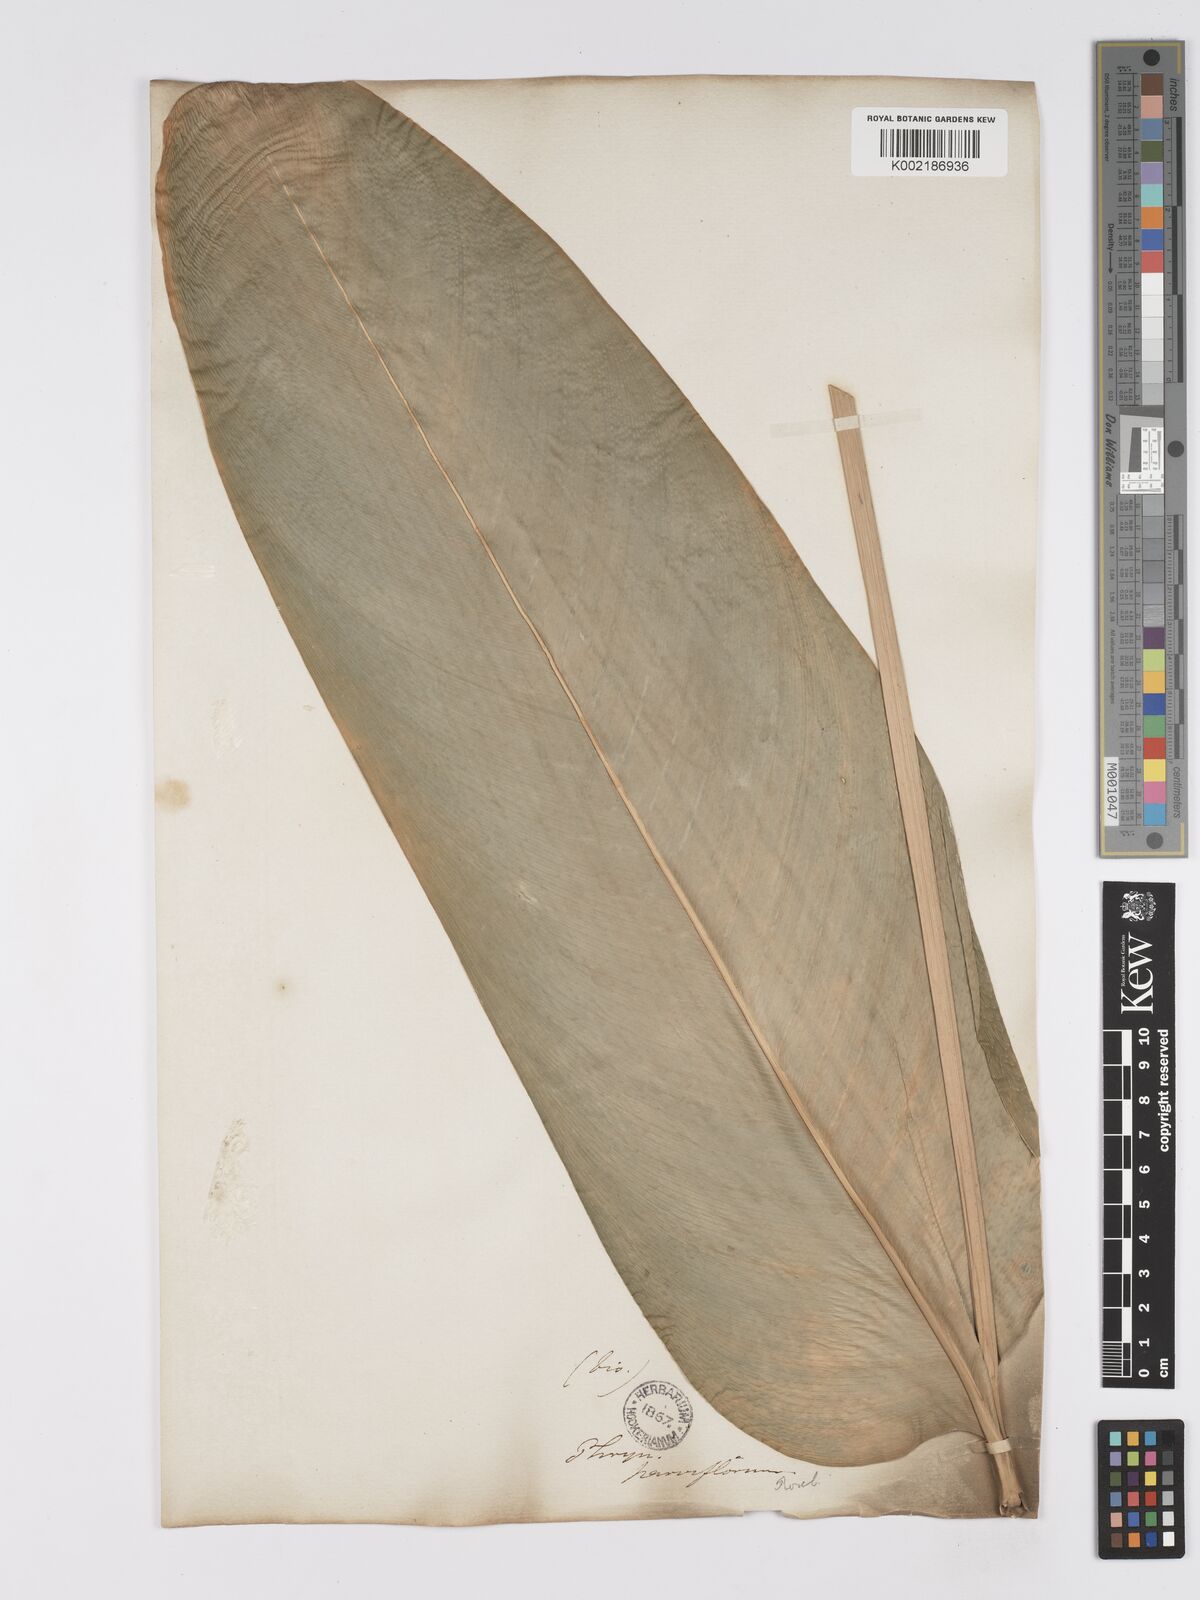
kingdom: Plantae
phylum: Tracheophyta
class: Liliopsida
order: Zingiberales
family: Marantaceae
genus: Stachyphrynium
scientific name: Stachyphrynium placentarium
